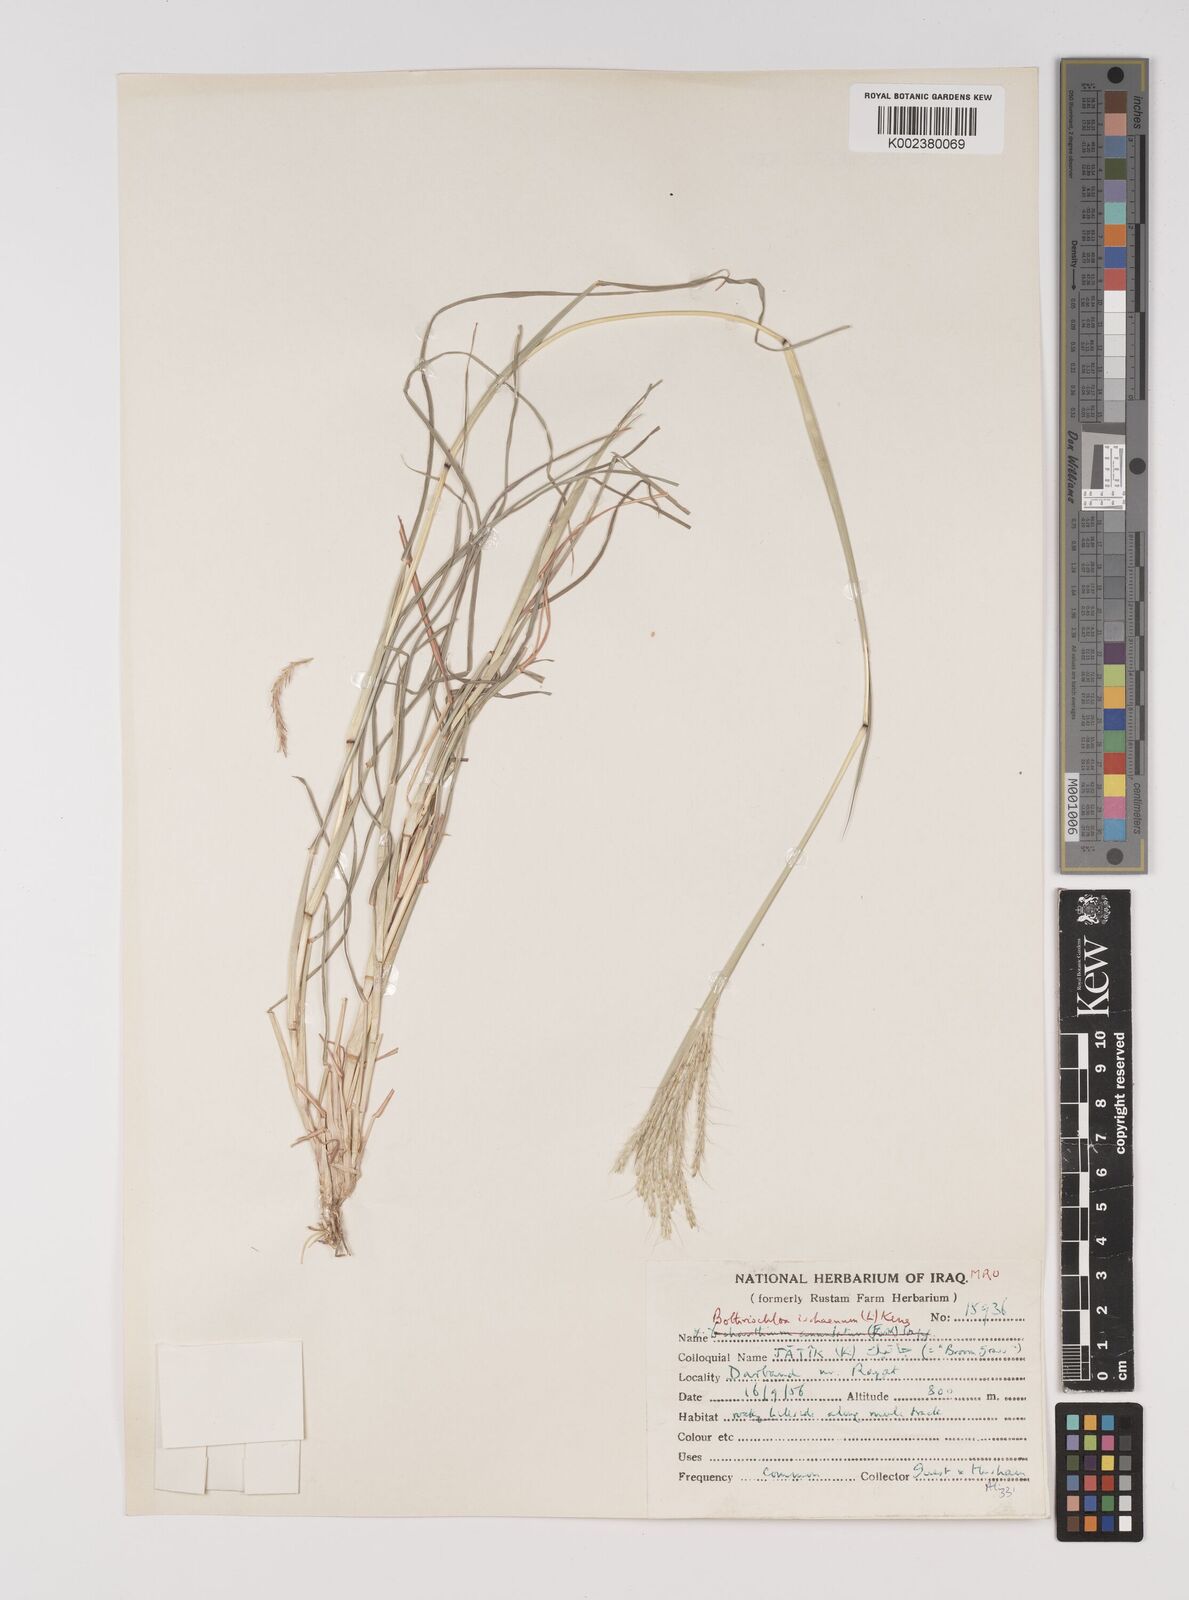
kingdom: Plantae
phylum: Tracheophyta
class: Liliopsida
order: Poales
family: Poaceae
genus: Bothriochloa
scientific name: Bothriochloa ischaemum
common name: Yellow bluestem
